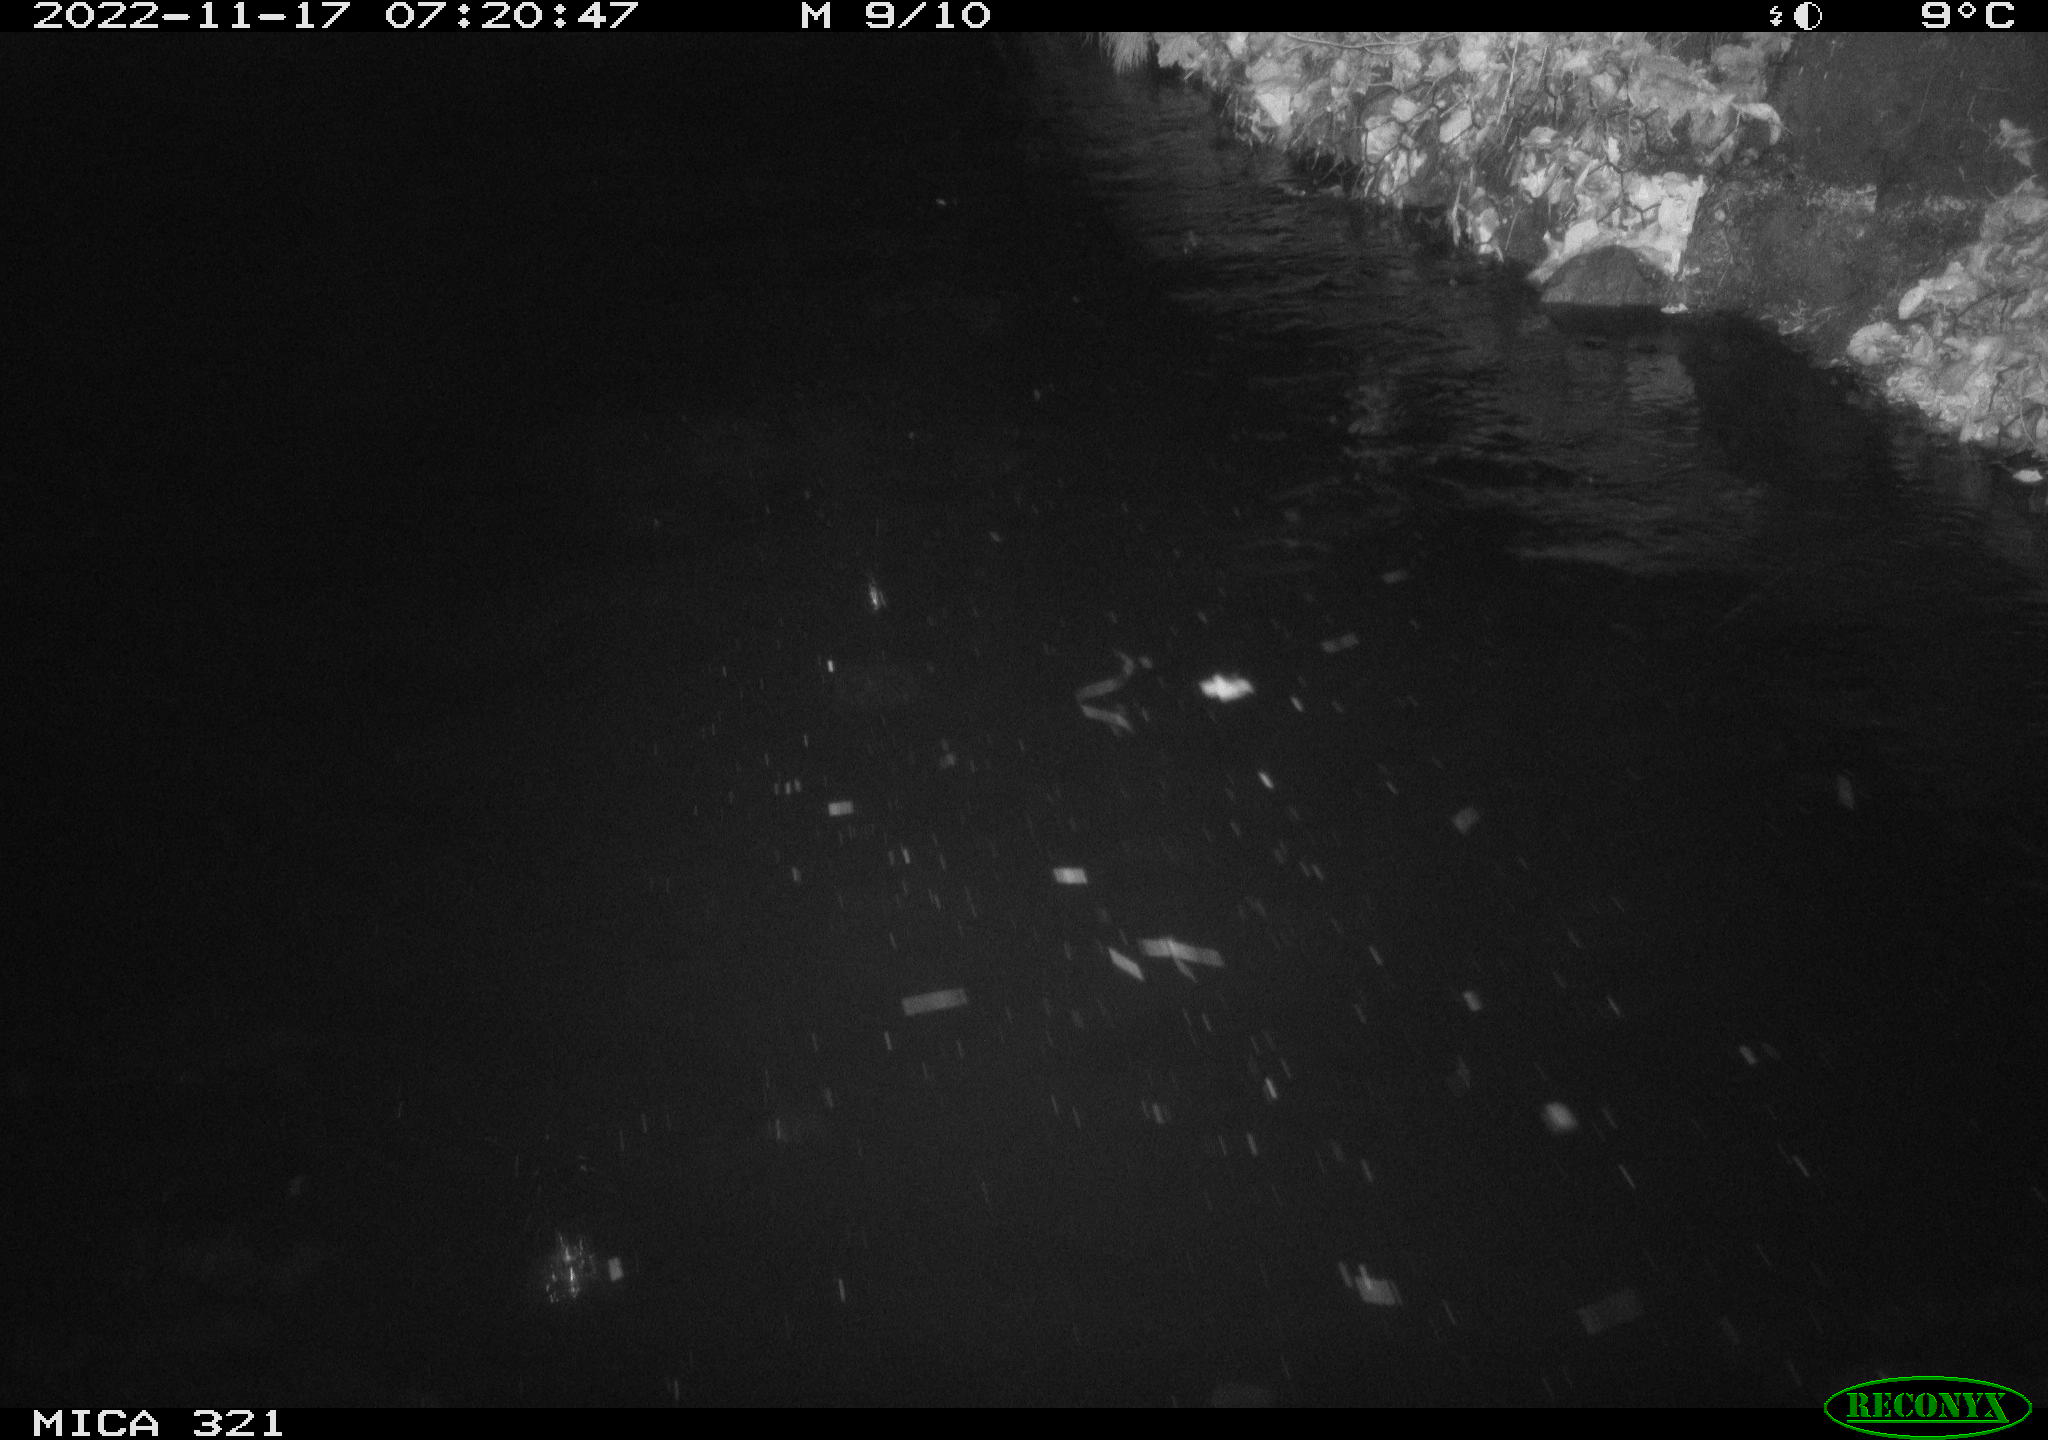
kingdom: Animalia
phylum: Chordata
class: Mammalia
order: Rodentia
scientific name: Rodentia
